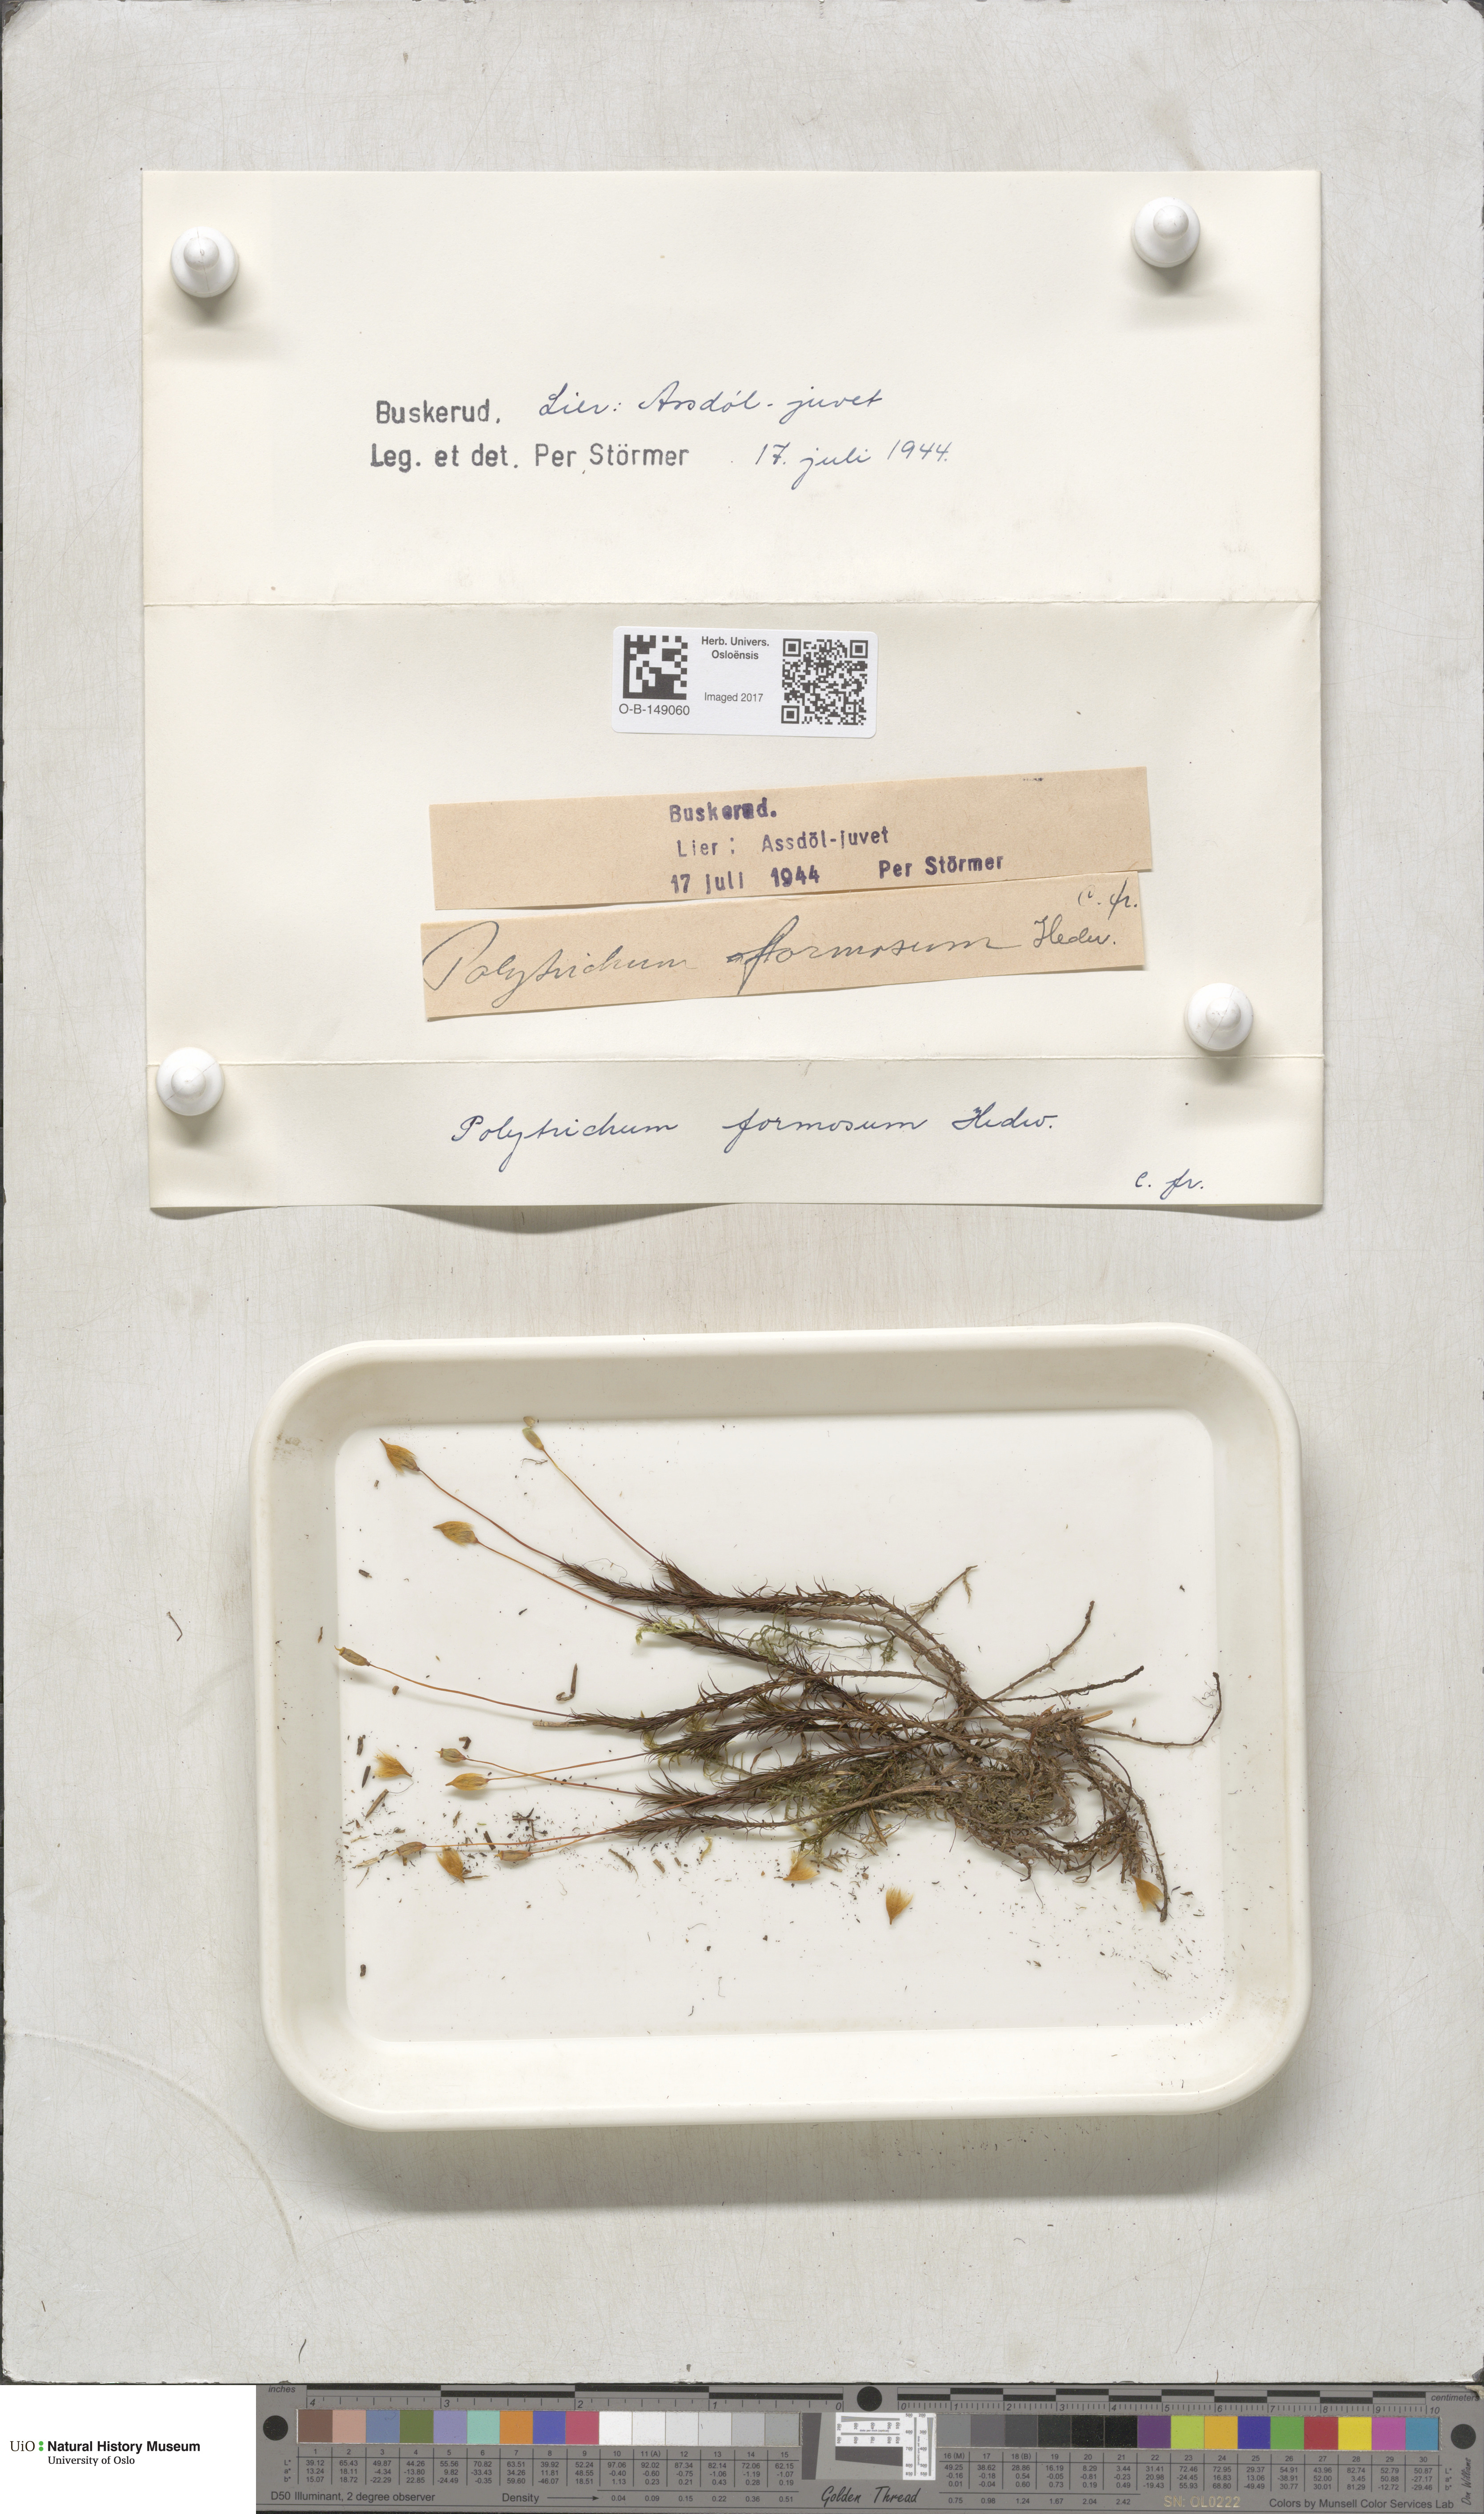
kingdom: Plantae
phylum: Bryophyta
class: Polytrichopsida
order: Polytrichales
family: Polytrichaceae
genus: Polytrichum
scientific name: Polytrichum formosum
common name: Bank haircap moss
